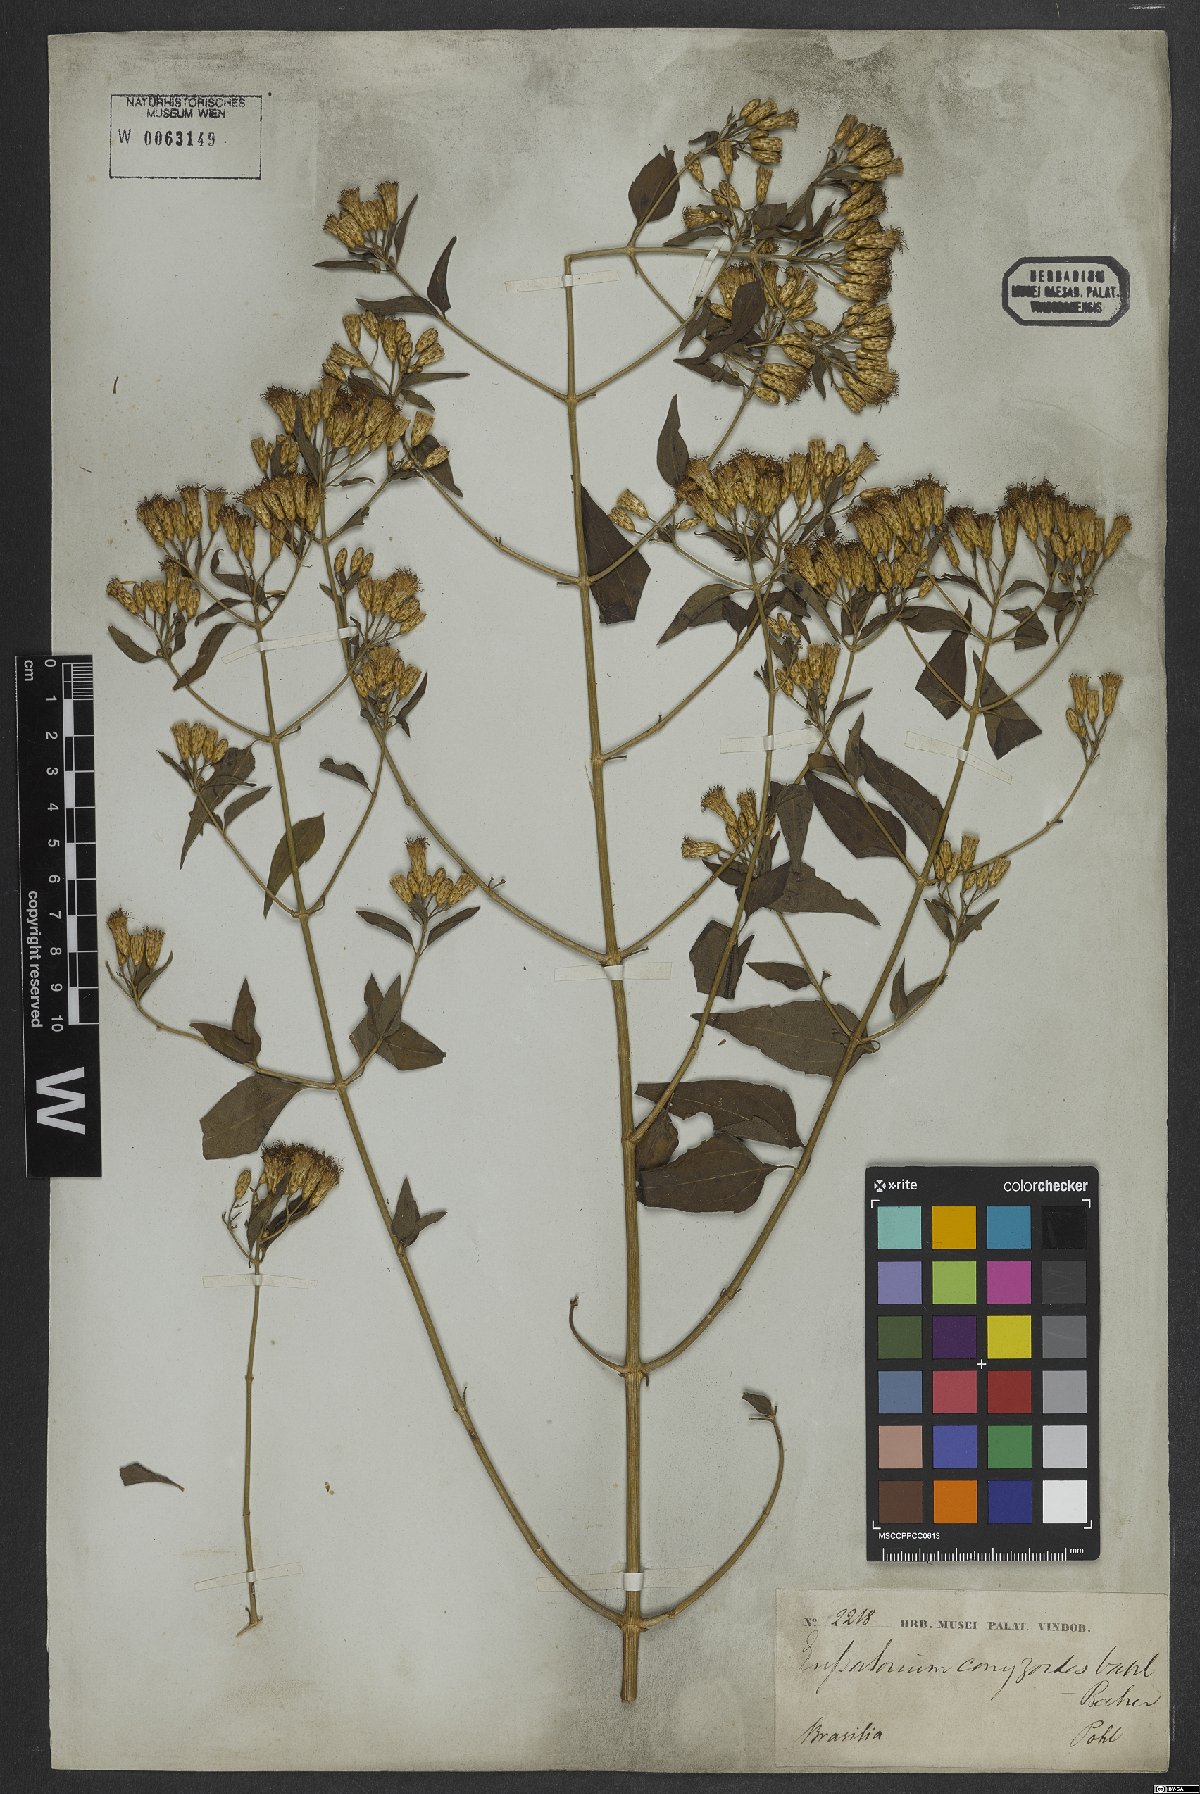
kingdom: Plantae
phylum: Tracheophyta
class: Magnoliopsida
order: Asterales
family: Asteraceae
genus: Chromolaena
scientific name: Chromolaena odorata
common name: Siamweed
